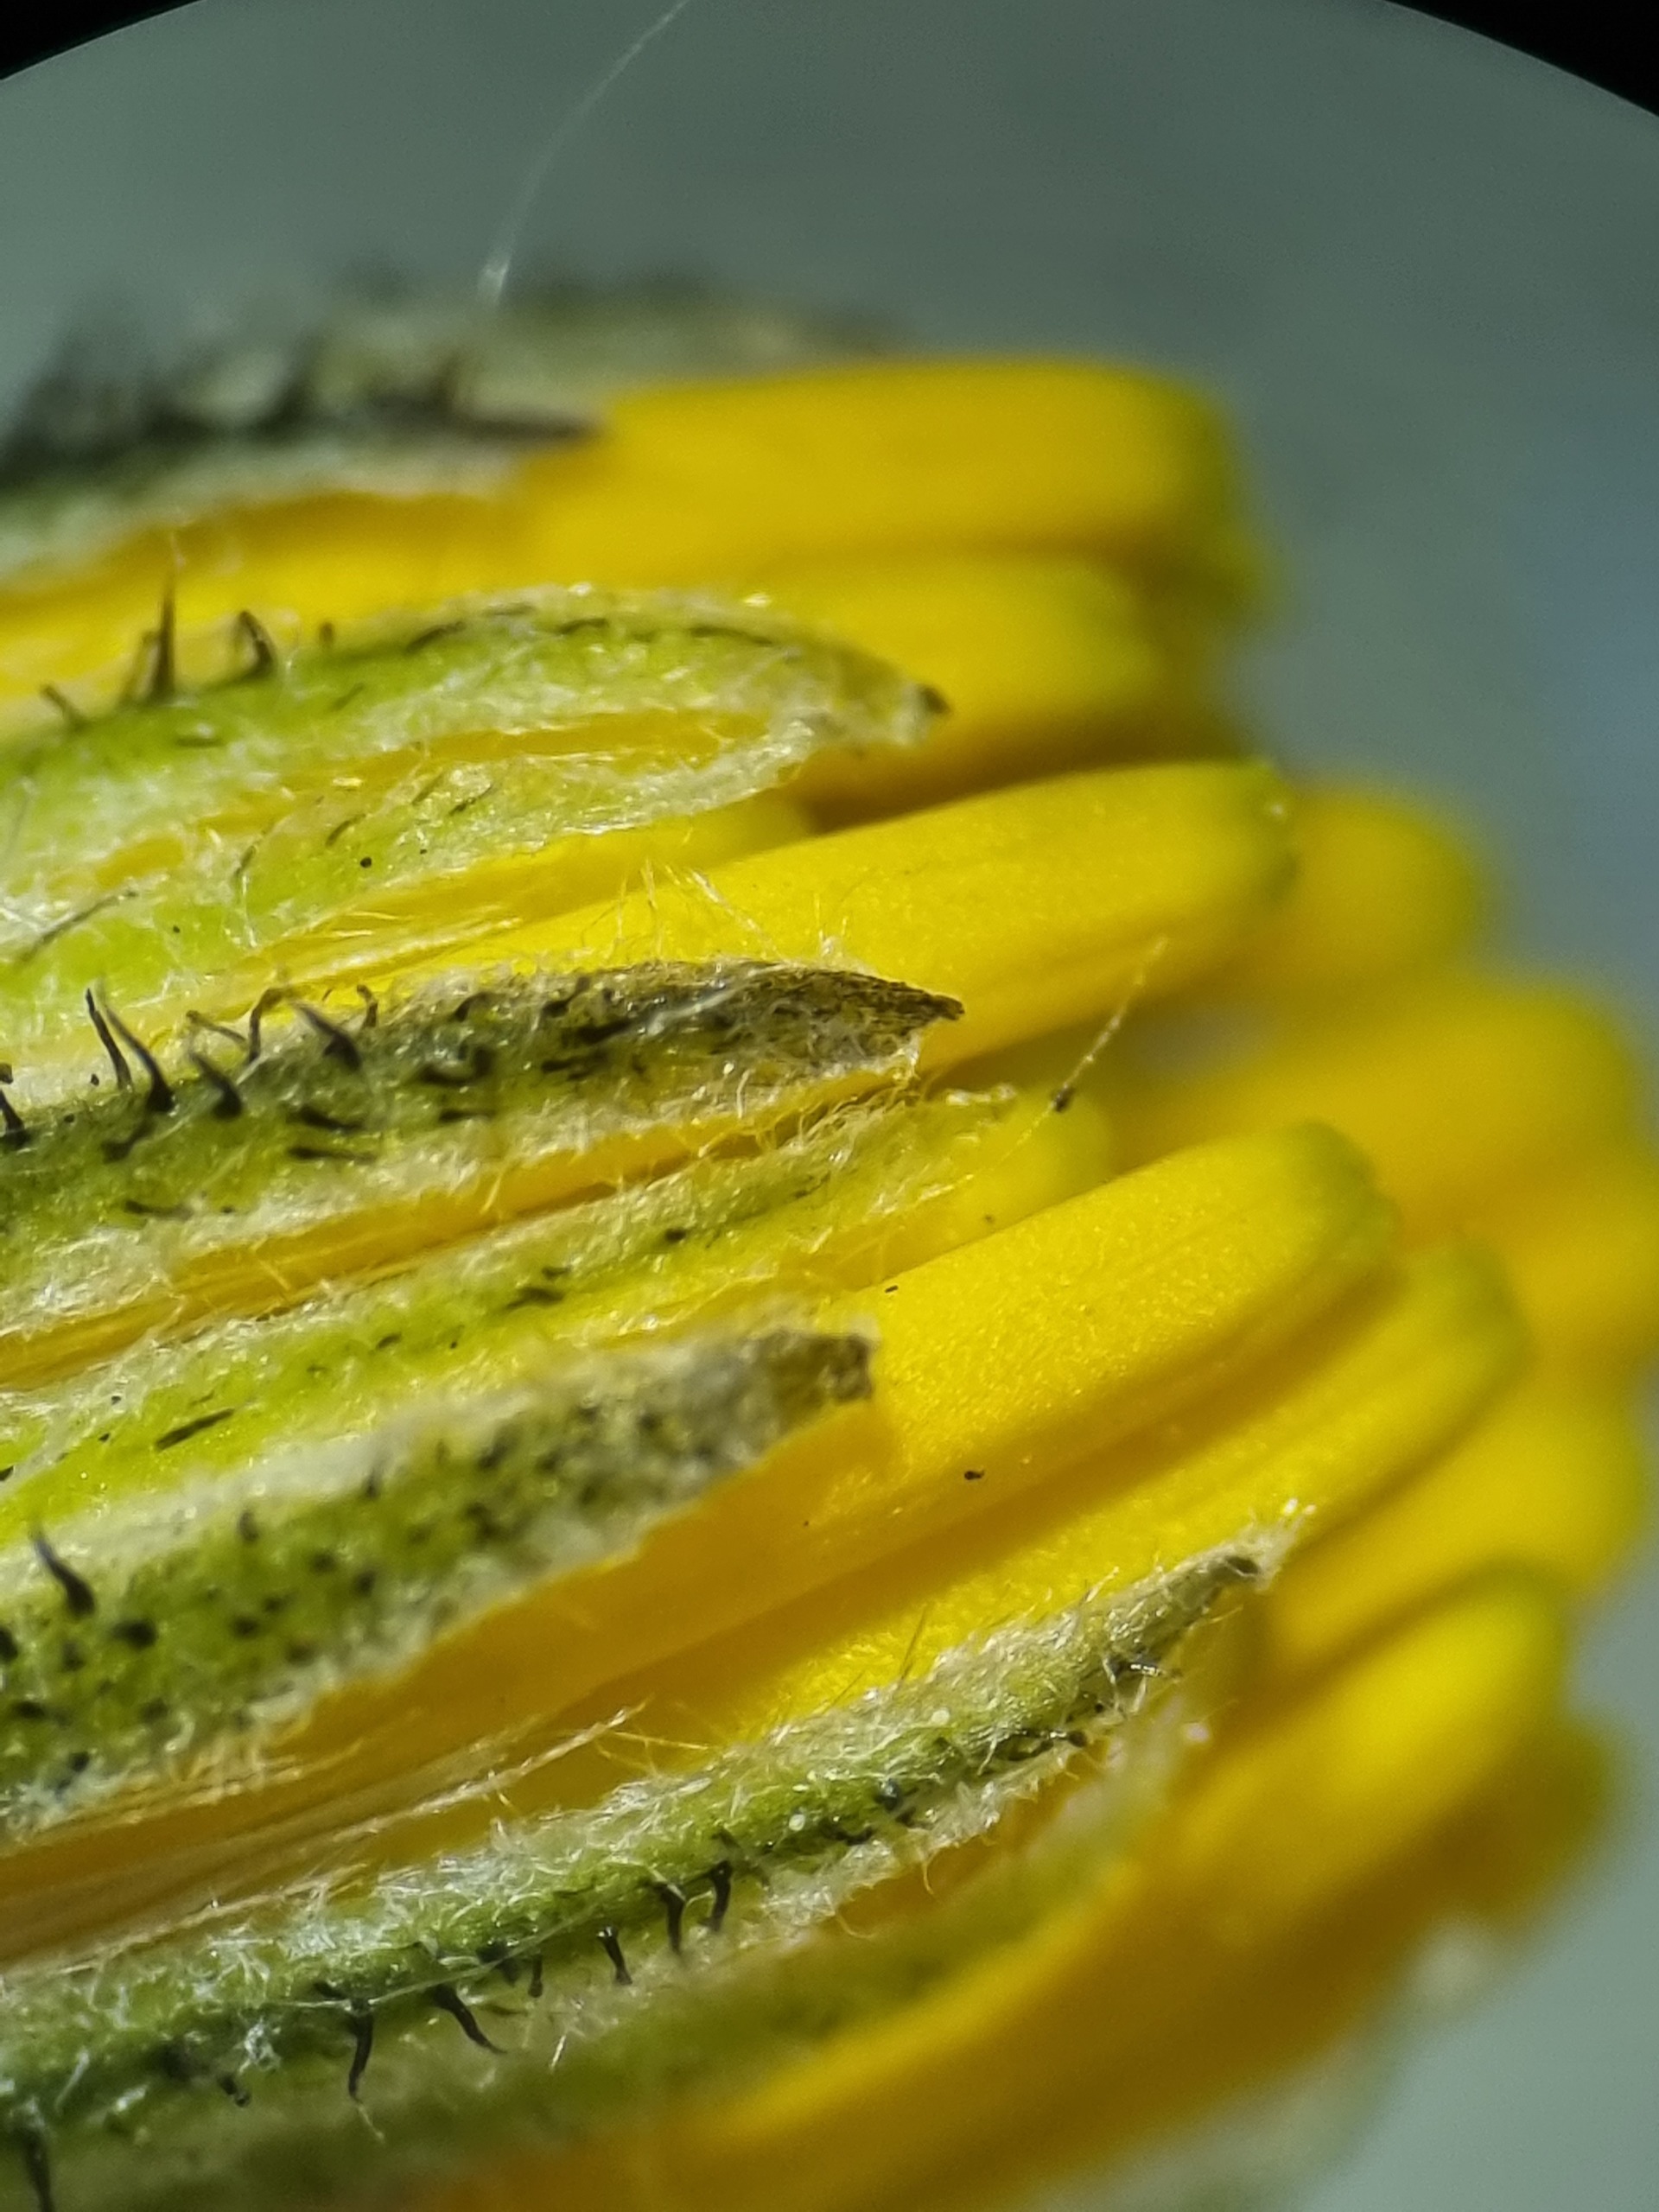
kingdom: Plantae
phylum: Tracheophyta
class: Magnoliopsida
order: Asterales
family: Asteraceae
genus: Hieracium
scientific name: Hieracium murorum
